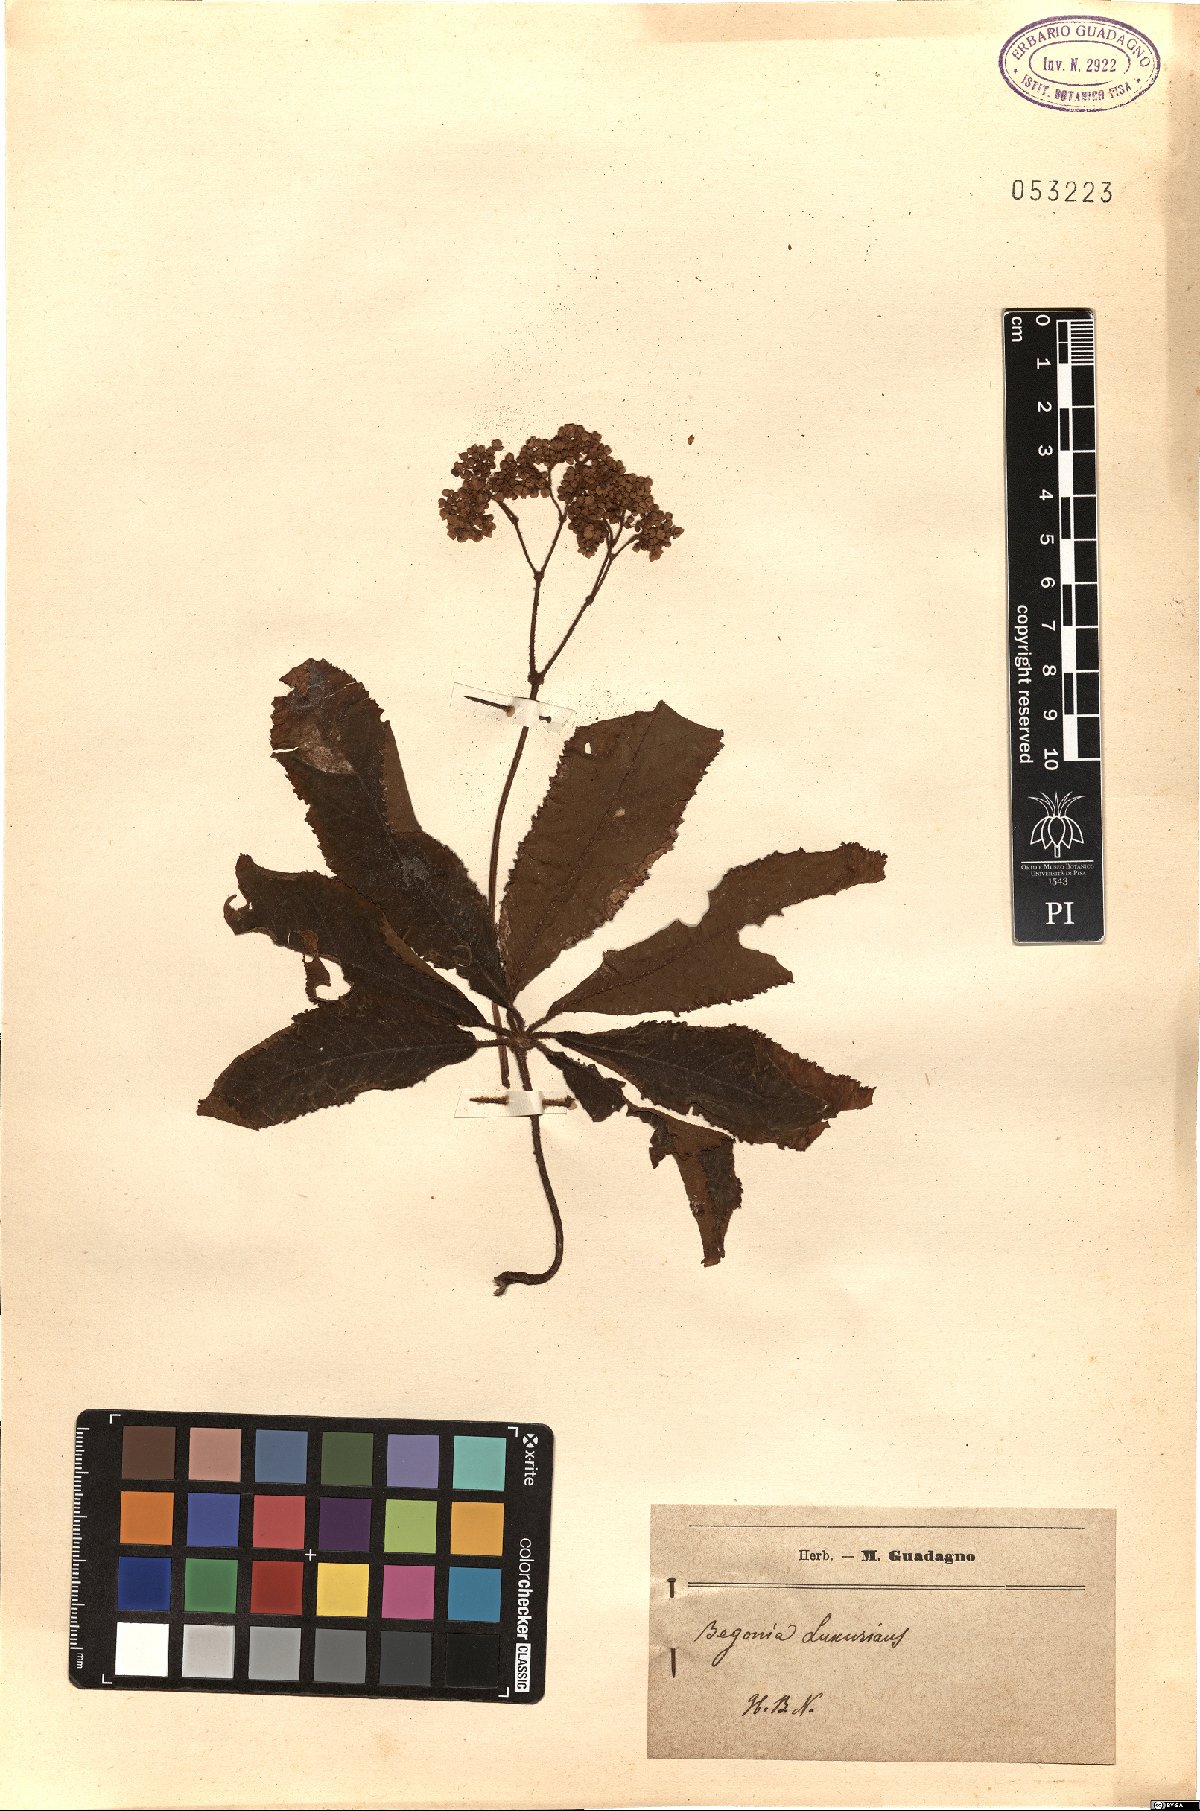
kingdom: Plantae
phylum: Tracheophyta
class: Magnoliopsida
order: Cucurbitales
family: Begoniaceae
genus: Begonia
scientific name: Begonia luxurians
